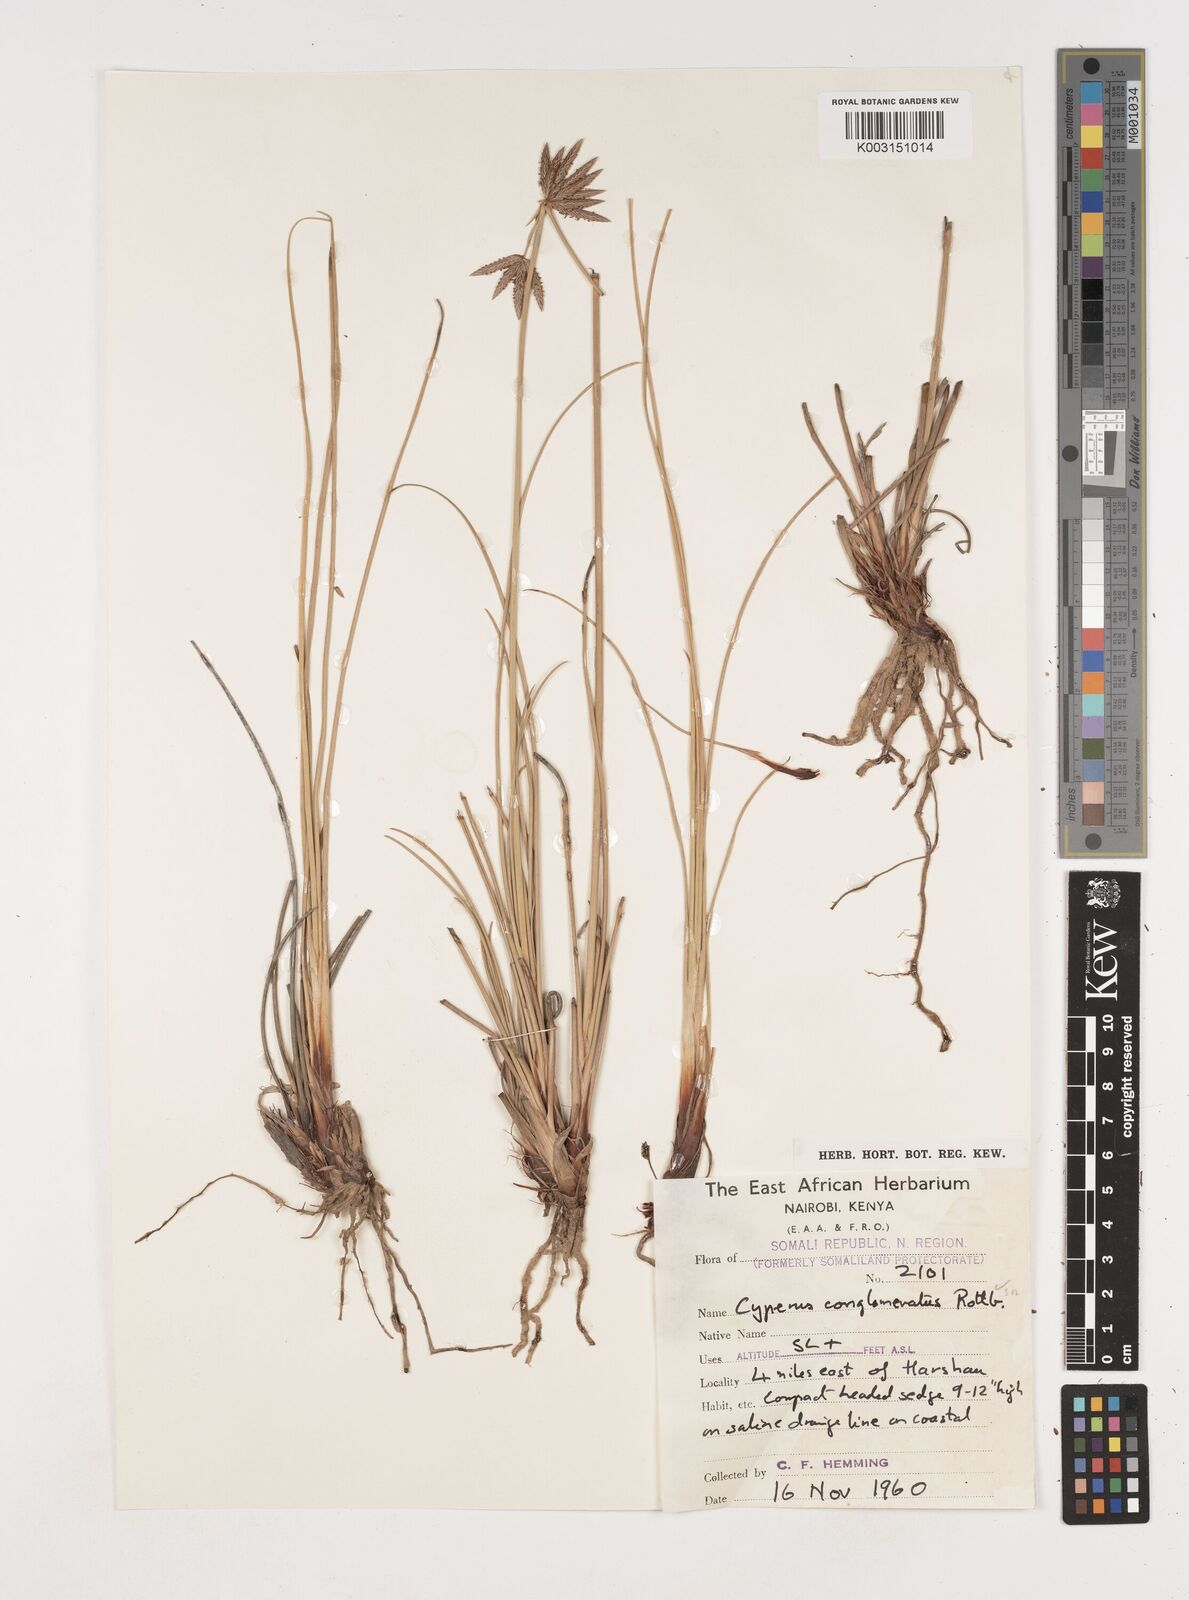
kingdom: Plantae
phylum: Tracheophyta
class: Liliopsida
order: Poales
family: Cyperaceae
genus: Cyperus
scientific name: Cyperus conglomeratus
